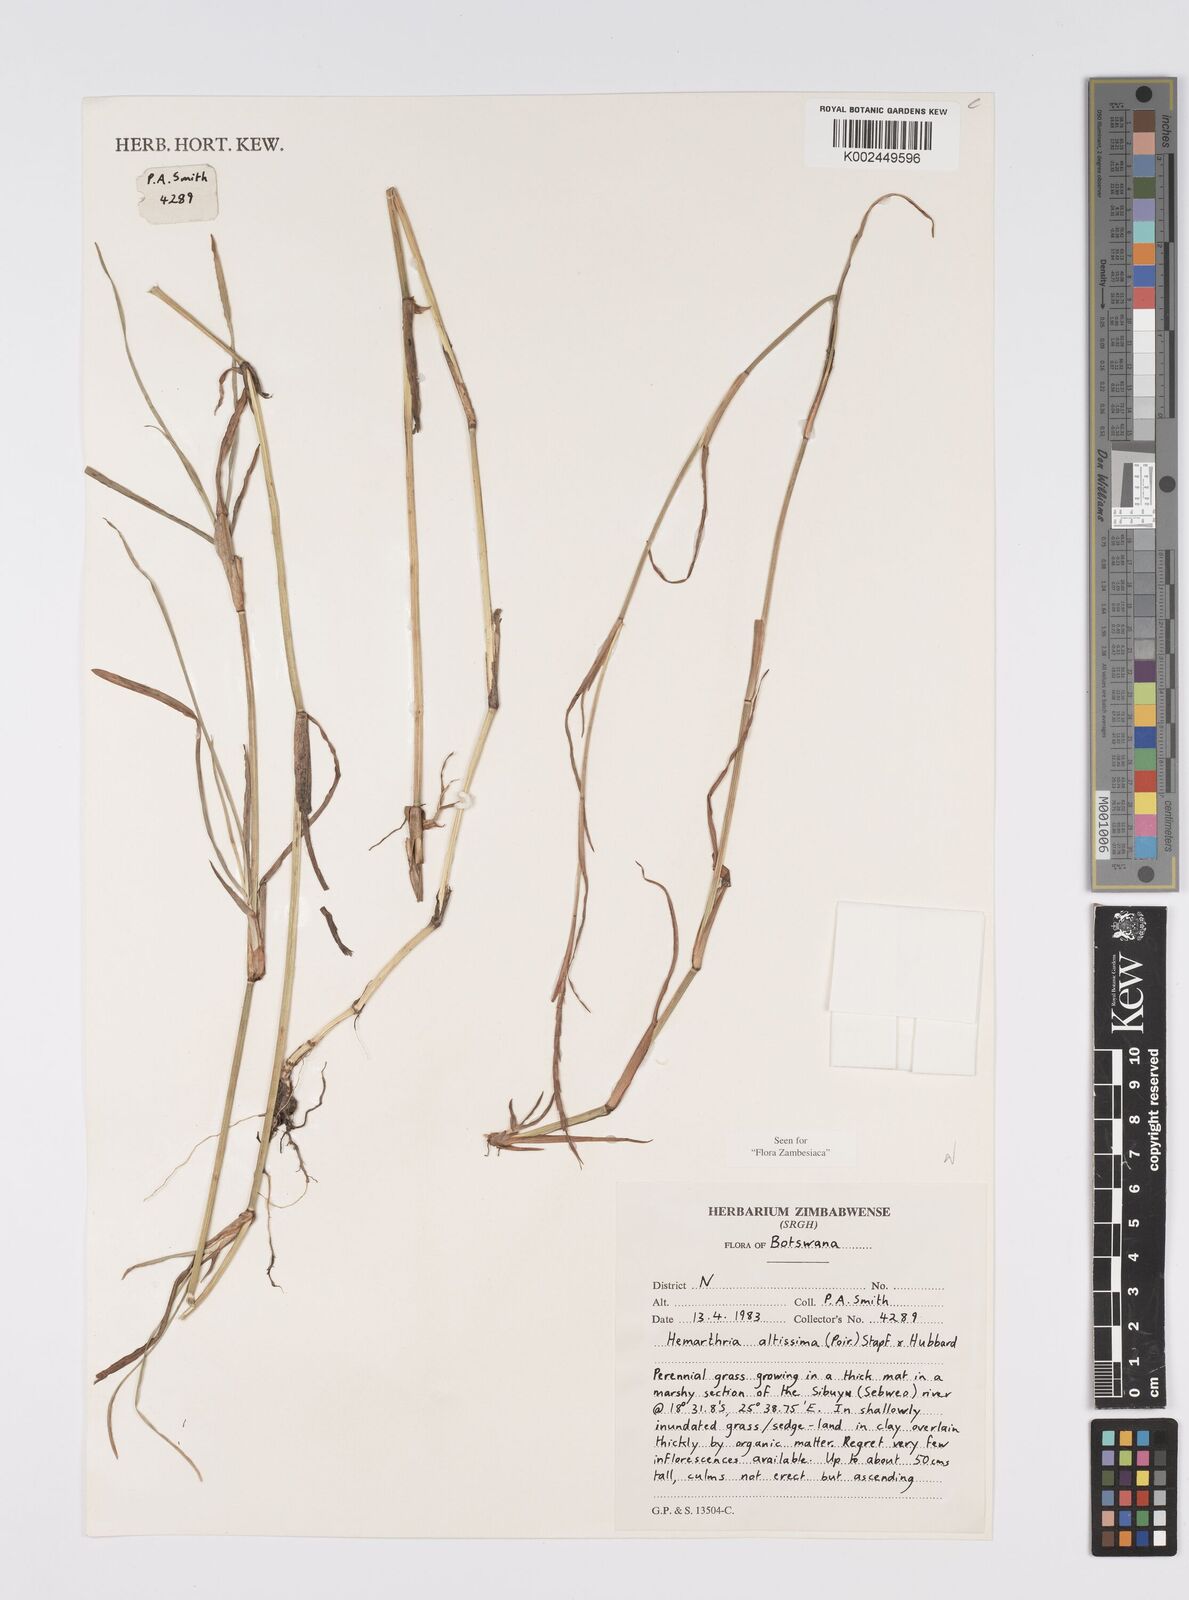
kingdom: Plantae
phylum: Tracheophyta
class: Liliopsida
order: Poales
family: Poaceae
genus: Hemarthria
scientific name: Hemarthria altissima
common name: African jointgrass
